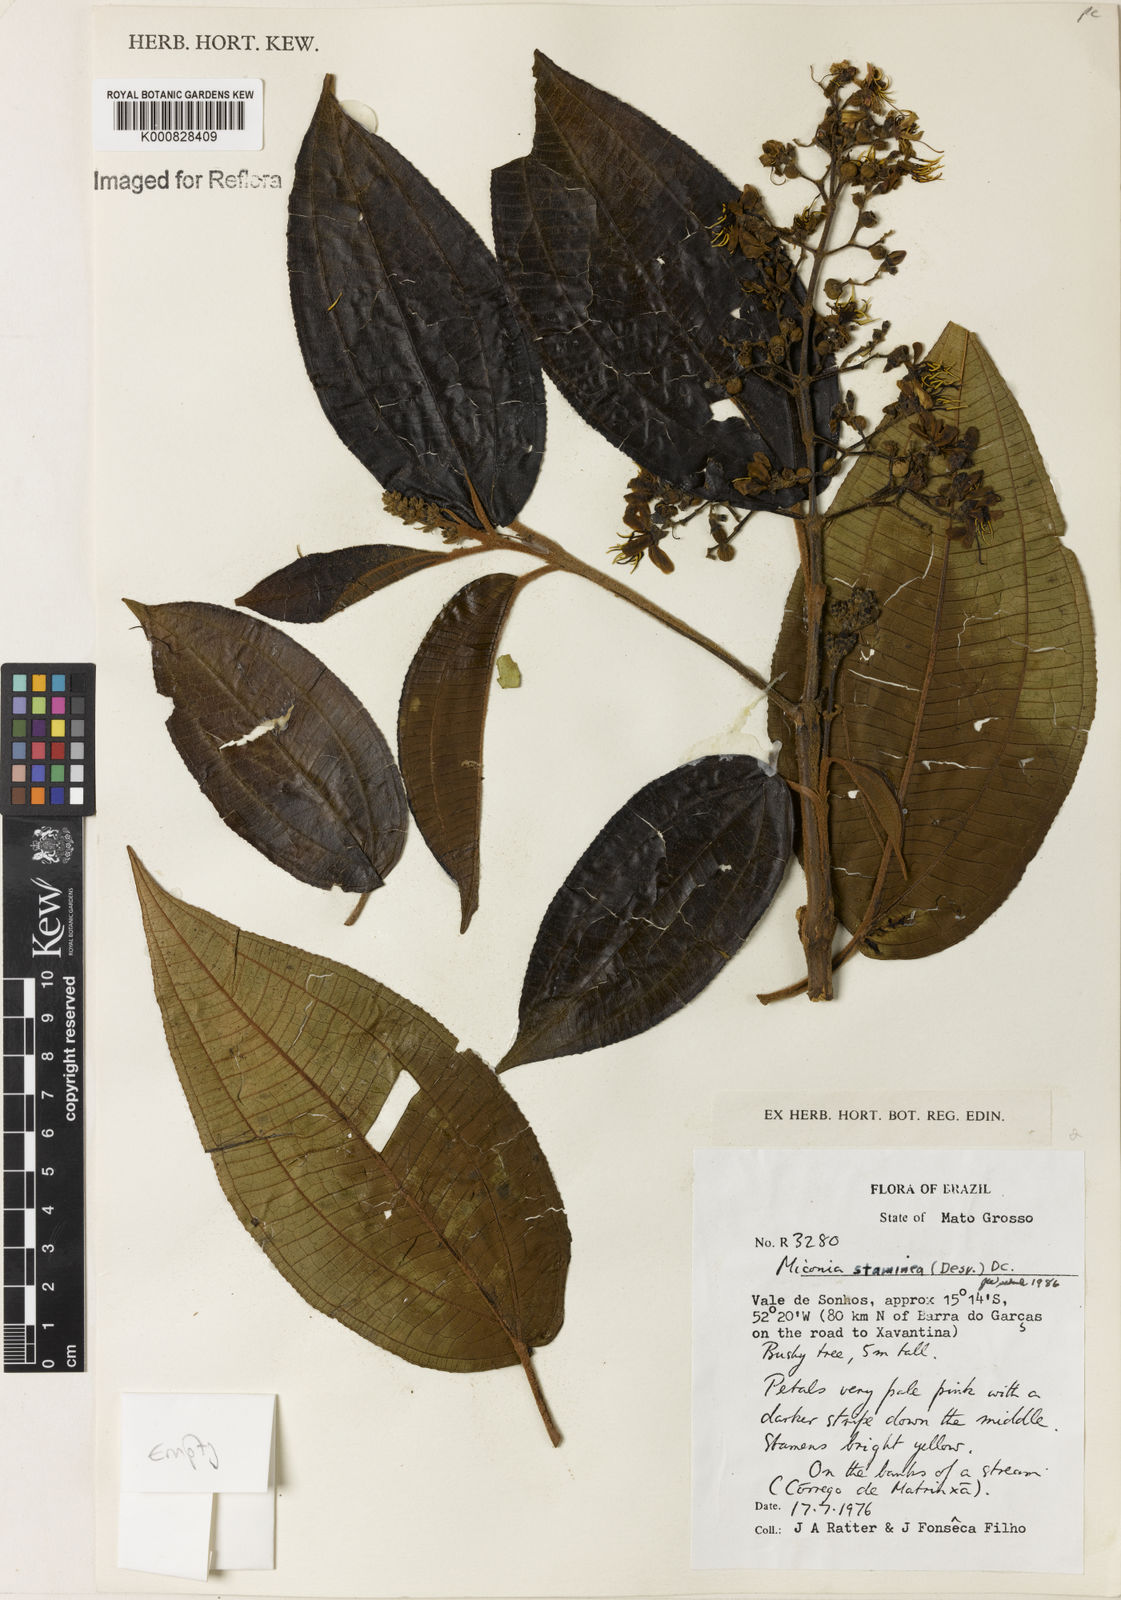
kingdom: Plantae
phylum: Tracheophyta
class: Magnoliopsida
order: Myrtales
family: Melastomataceae
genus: Miconia
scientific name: Miconia staminea
